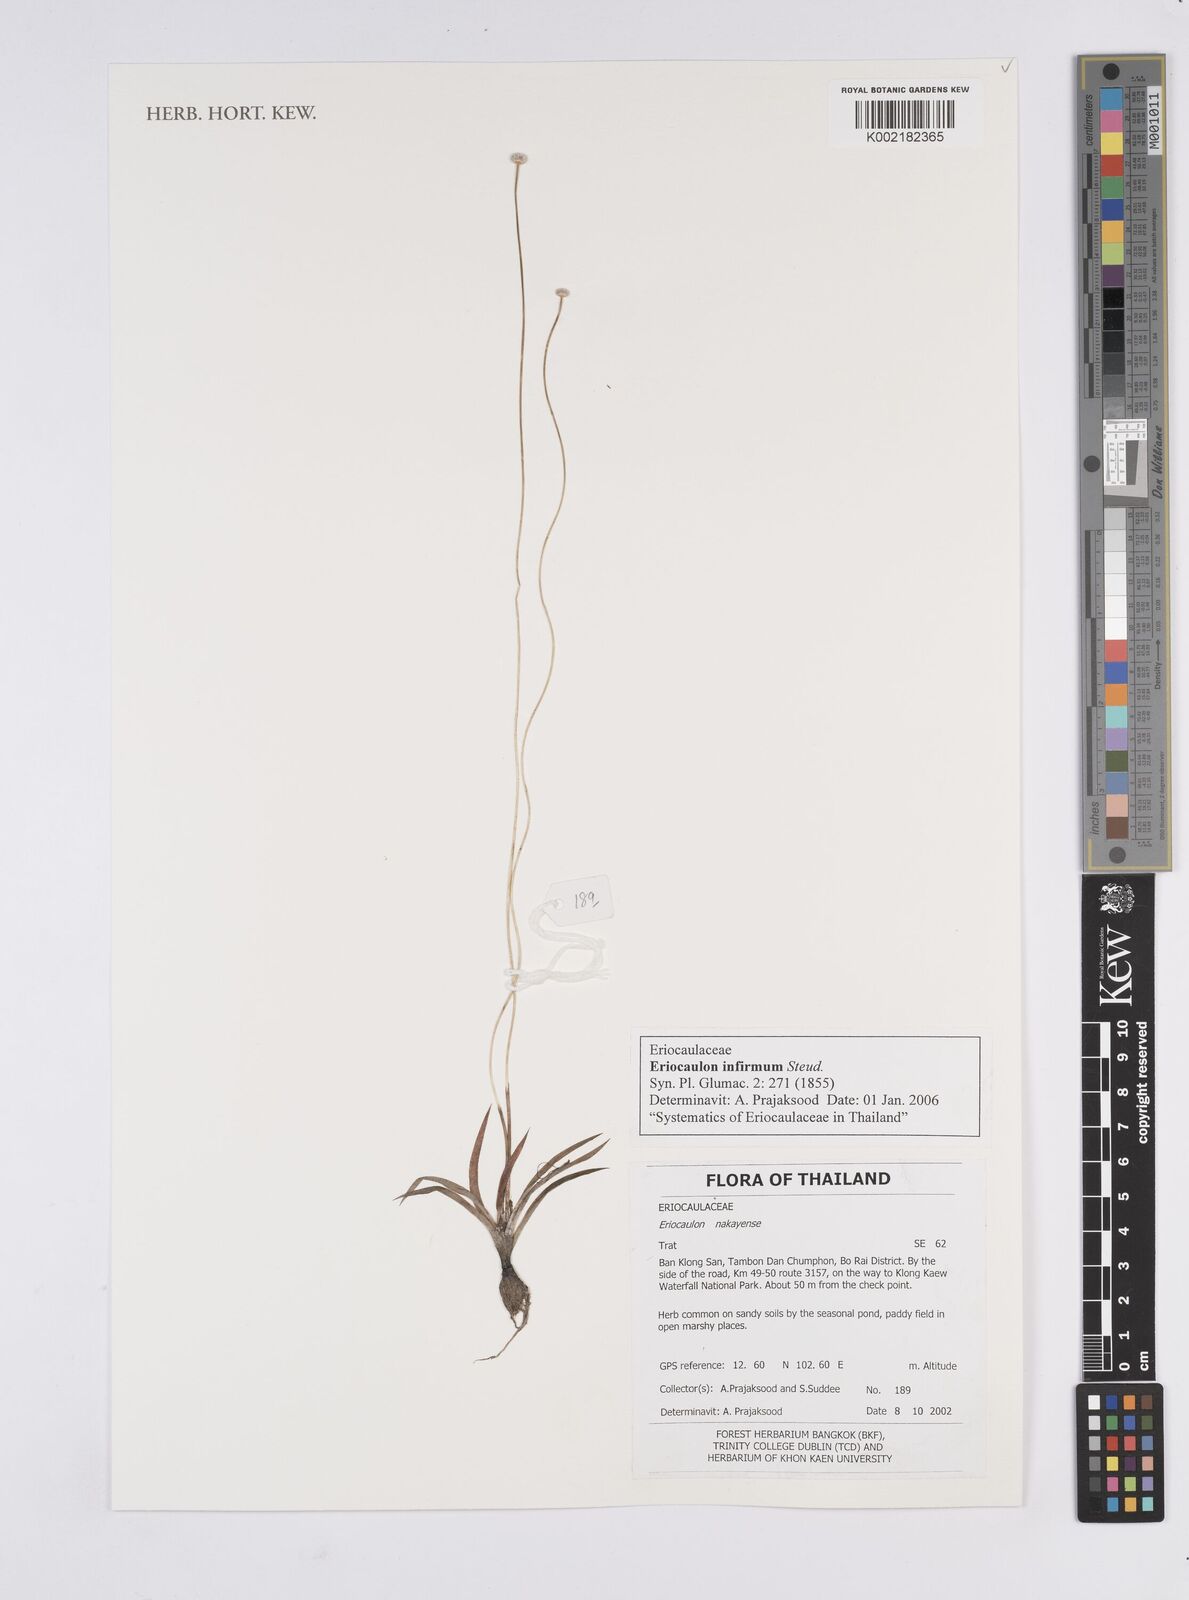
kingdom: Plantae
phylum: Tracheophyta
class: Liliopsida
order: Poales
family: Eriocaulaceae
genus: Eriocaulon
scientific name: Eriocaulon infirmum
